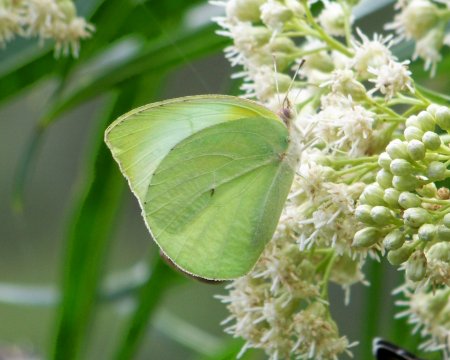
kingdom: Animalia
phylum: Arthropoda
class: Insecta
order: Lepidoptera
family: Pieridae
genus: Kricogonia
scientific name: Kricogonia lyside
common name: Lyside Sulphur
